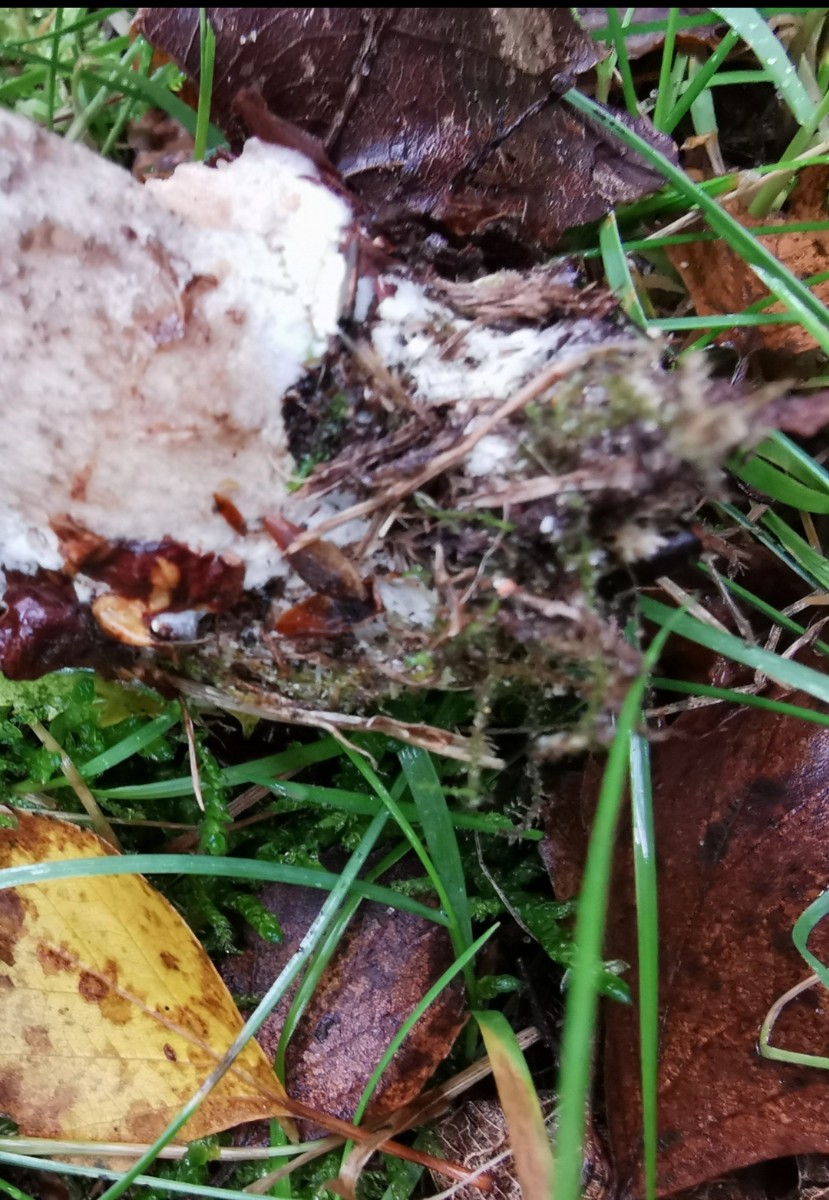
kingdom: Fungi
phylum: Basidiomycota
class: Agaricomycetes
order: Boletales
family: Boletaceae
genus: Leccinum
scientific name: Leccinum
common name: skælrørhat
